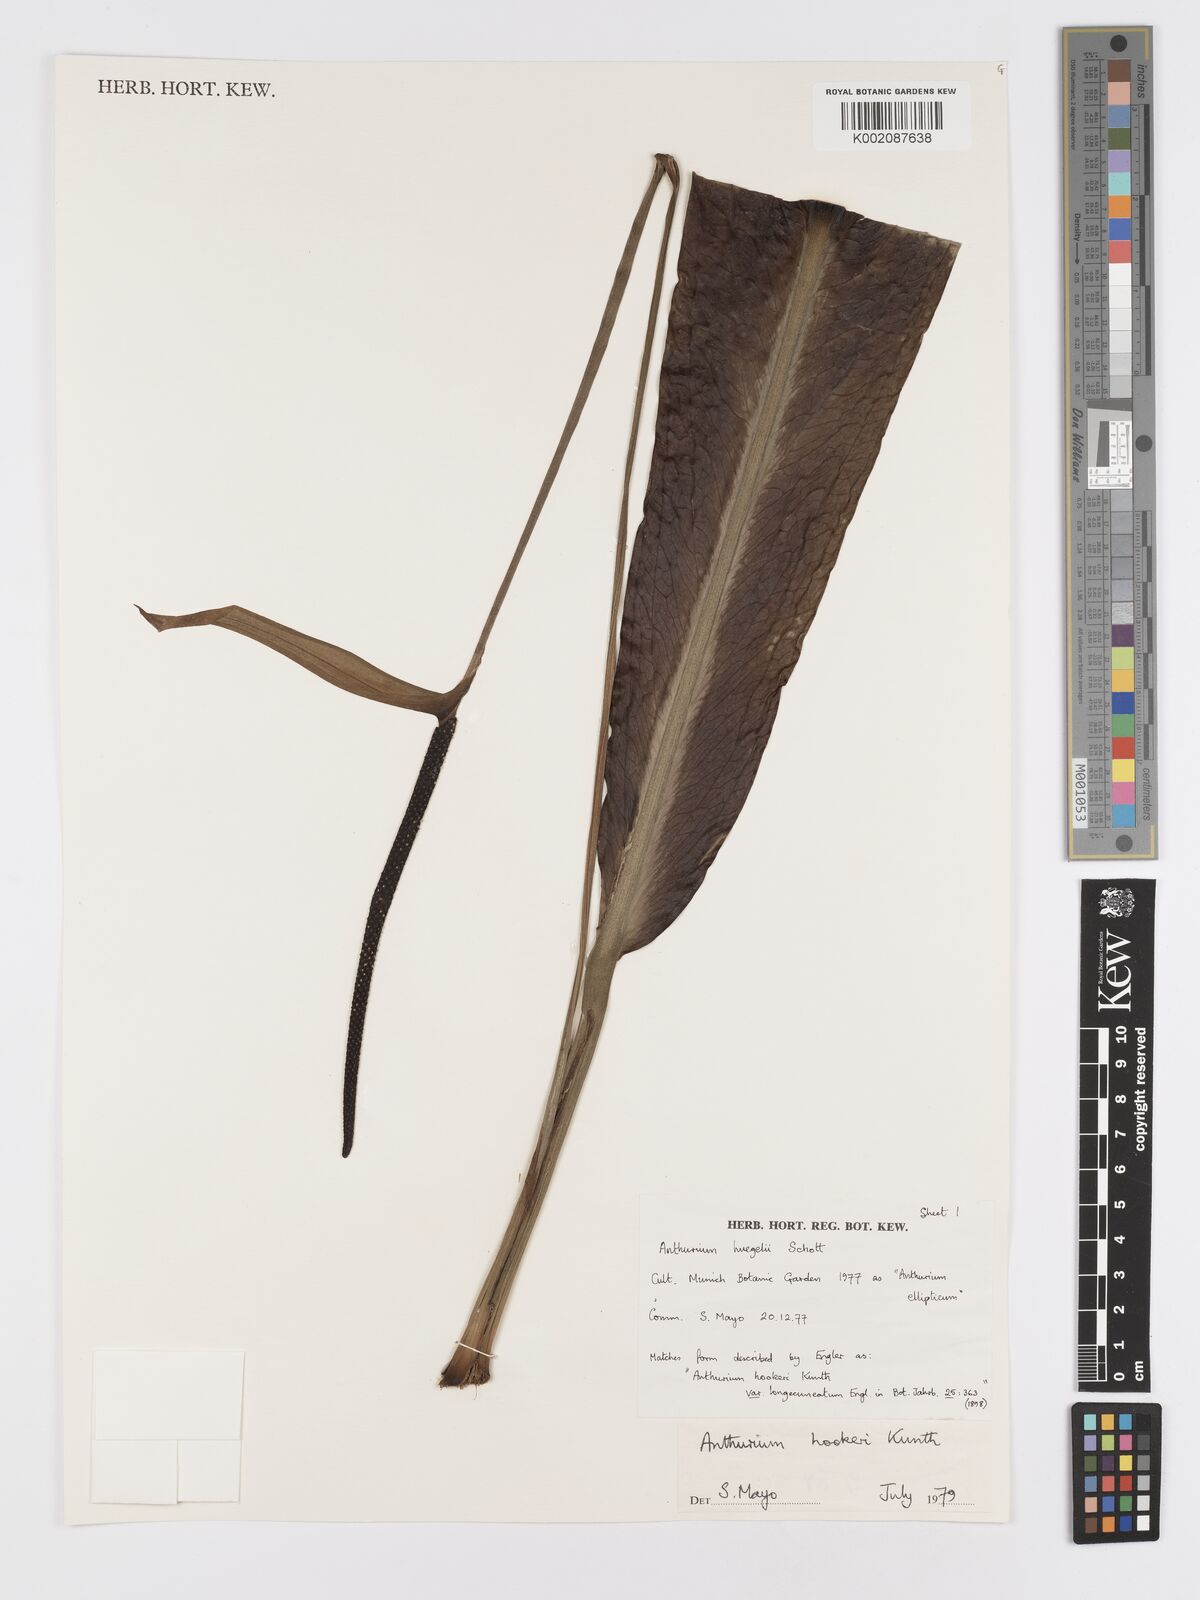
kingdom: Plantae
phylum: Tracheophyta
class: Liliopsida
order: Alismatales
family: Araceae
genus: Anthurium
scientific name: Anthurium hookeri
